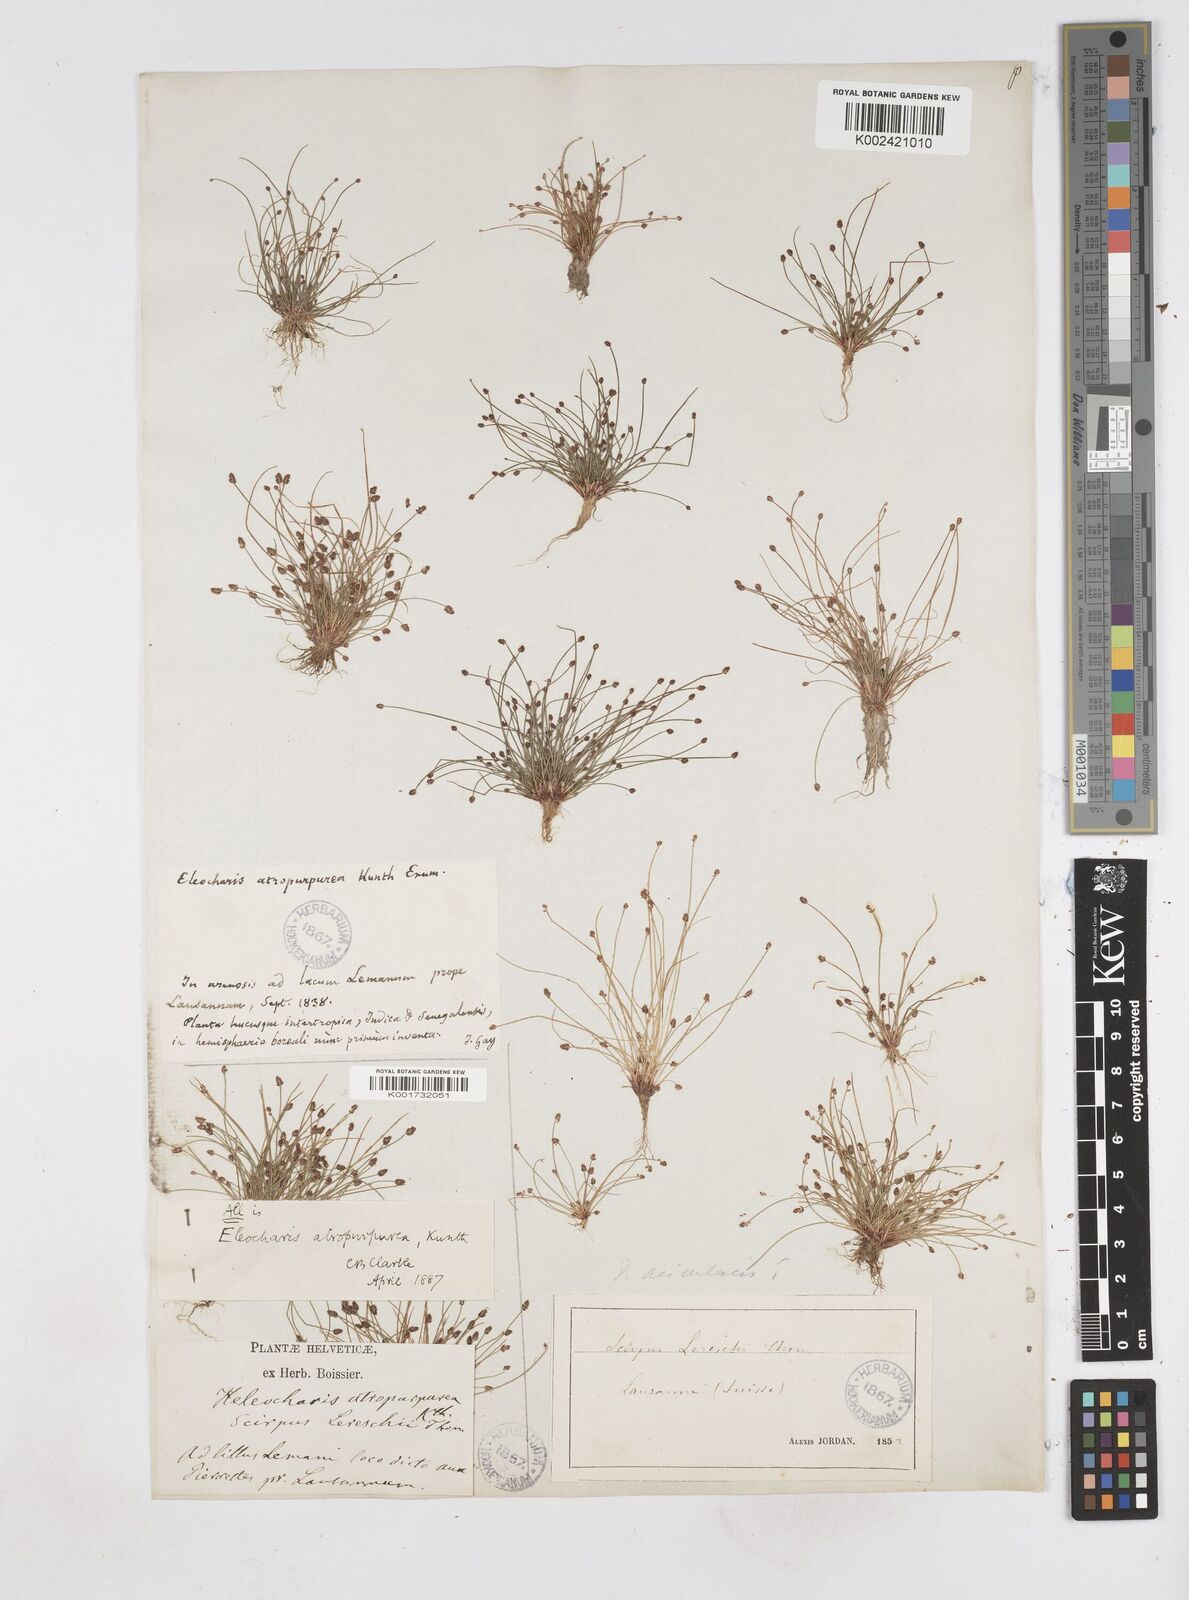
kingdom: Plantae
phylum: Tracheophyta
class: Liliopsida
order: Poales
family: Cyperaceae
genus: Eleocharis
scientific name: Eleocharis atropurpurea
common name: Purple spikerush
